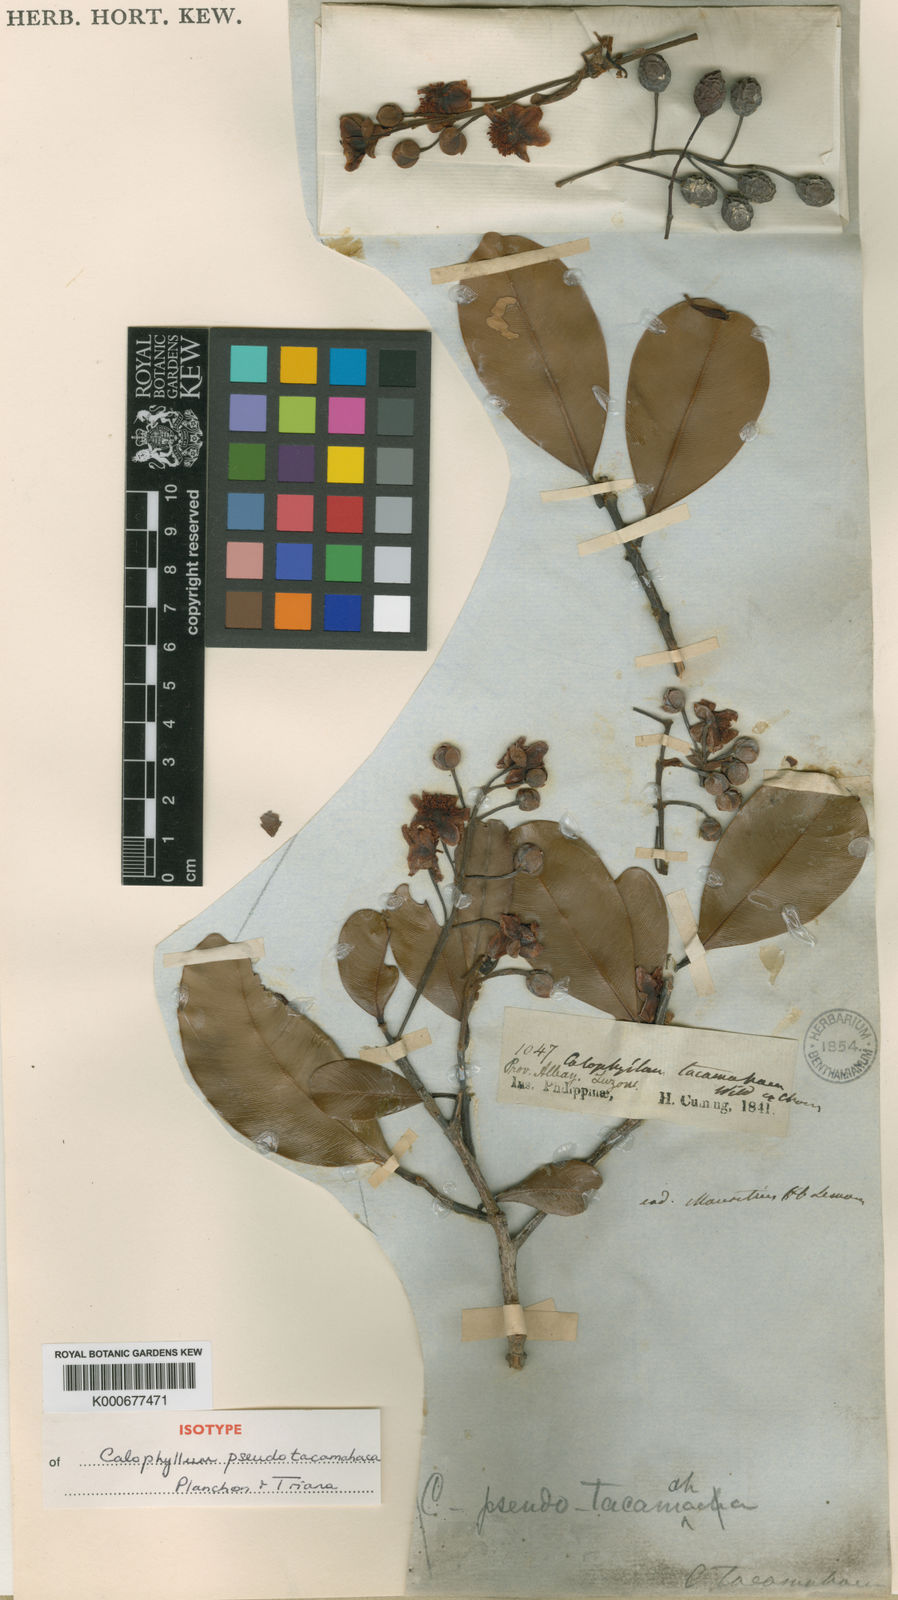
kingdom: Plantae
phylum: Tracheophyta
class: Magnoliopsida
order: Malpighiales
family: Calophyllaceae
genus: Calophyllum
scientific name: Calophyllum pentapetalum
